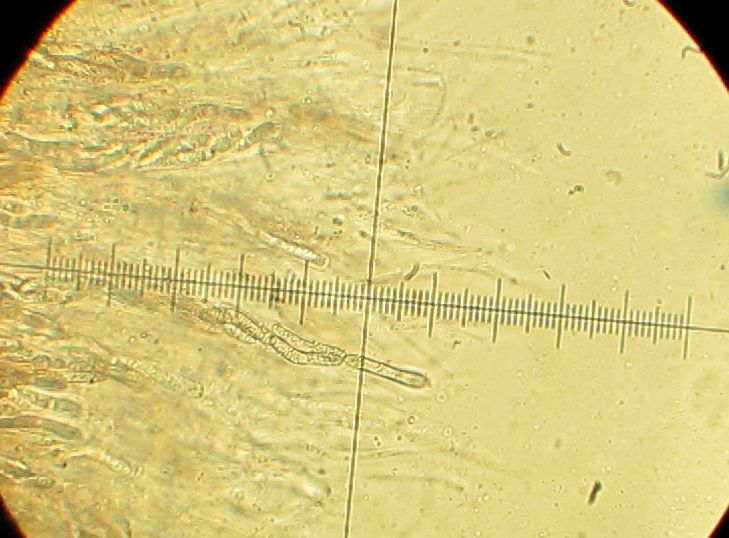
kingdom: Fungi
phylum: Ascomycota
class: Sordariomycetes
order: Sordariales
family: Helminthosphaeriaceae
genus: Echinosphaeria
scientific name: Echinosphaeria canescens
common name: brun børstekerne
